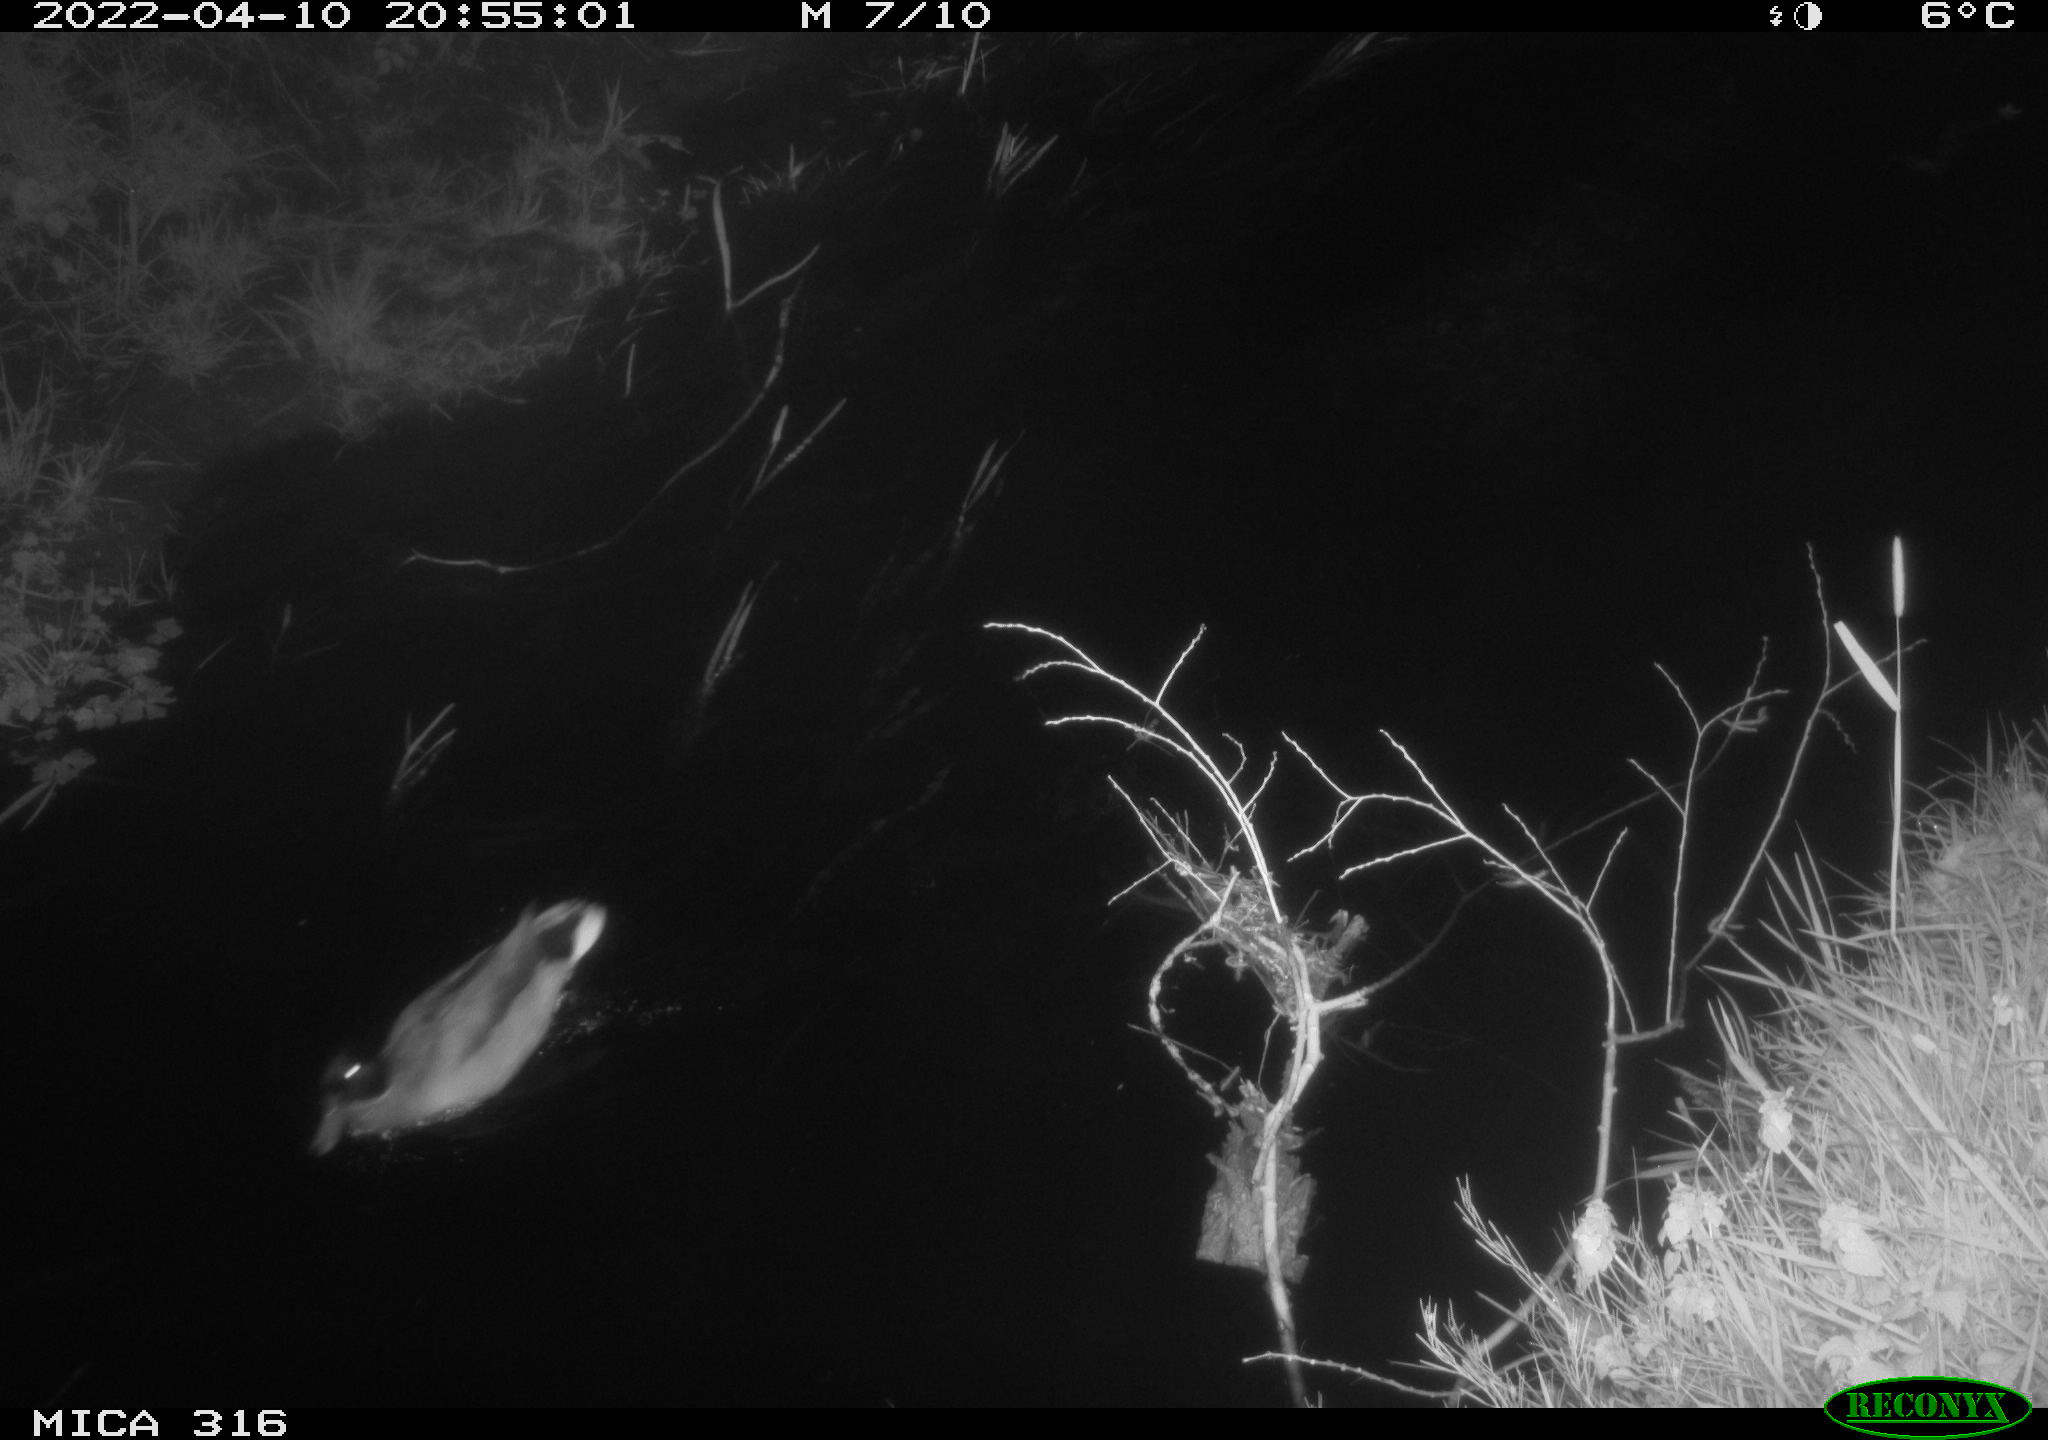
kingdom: Animalia
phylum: Chordata
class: Aves
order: Anseriformes
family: Anatidae
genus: Anas
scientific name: Anas platyrhynchos
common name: Mallard
